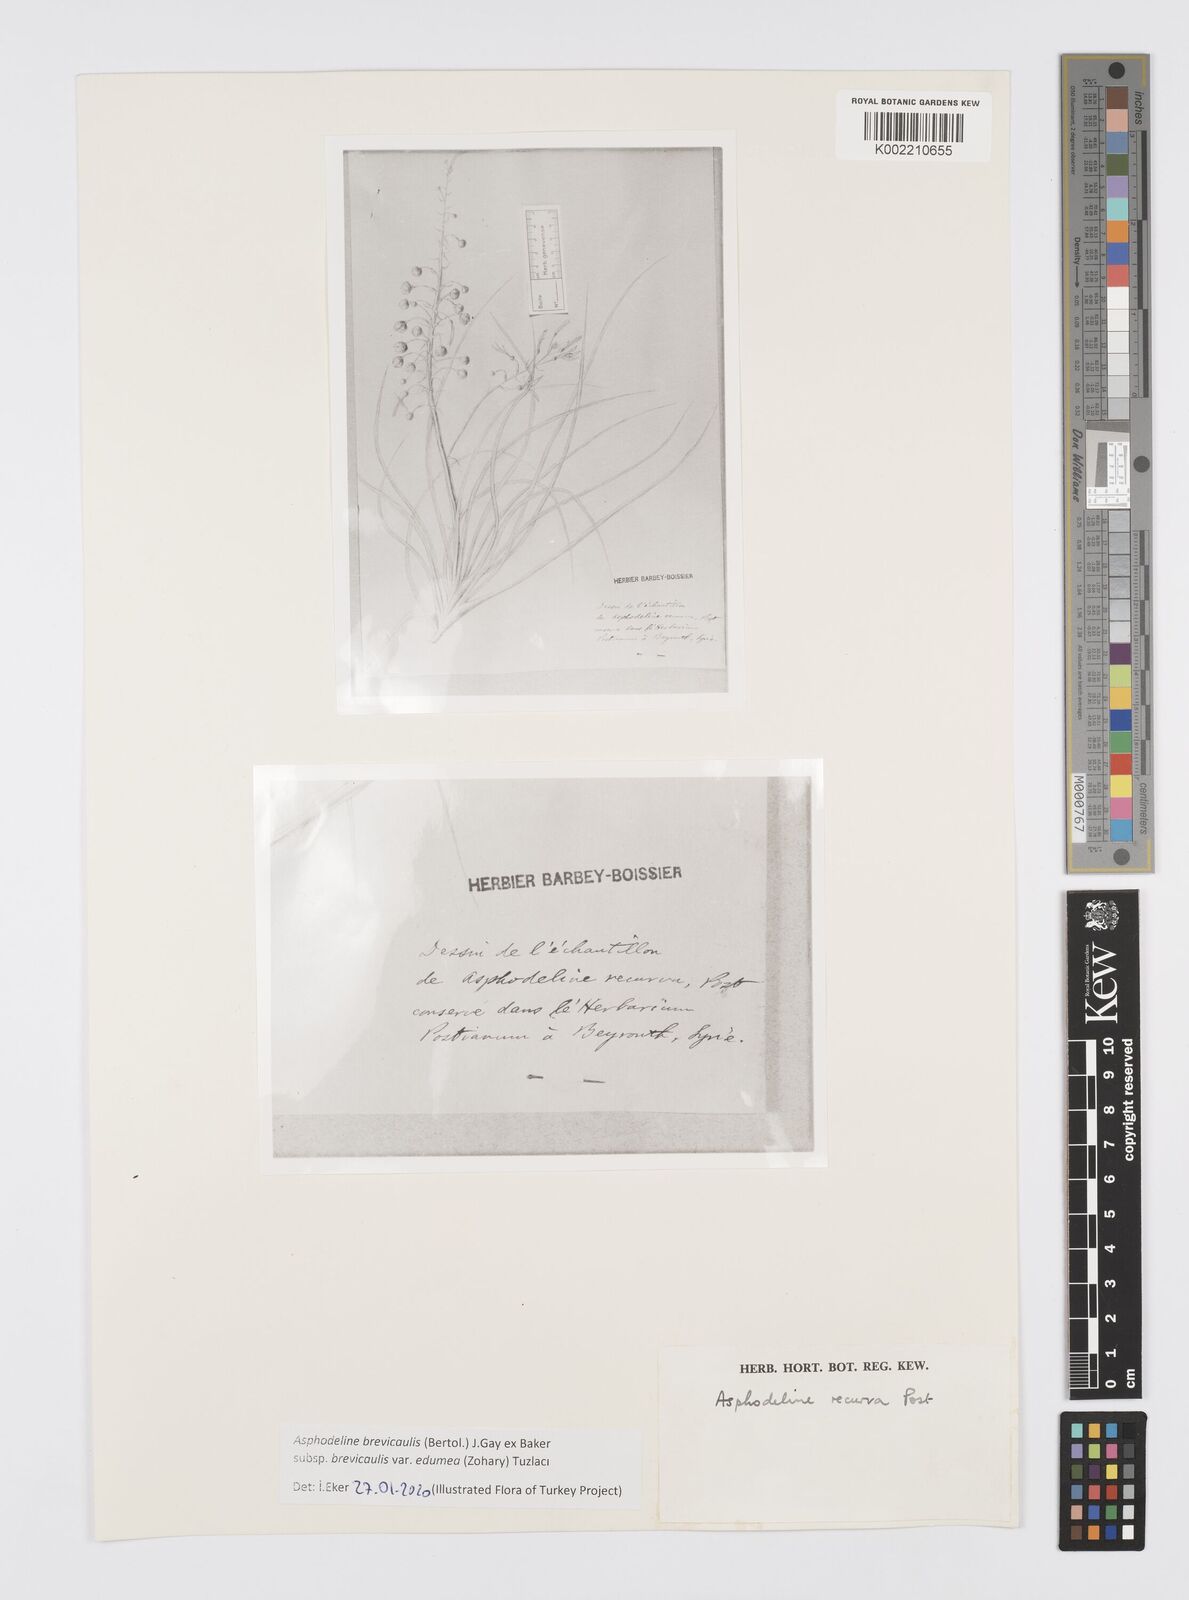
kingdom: Plantae
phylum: Tracheophyta
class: Liliopsida
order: Asparagales
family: Asphodelaceae
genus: Asphodeline
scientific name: Asphodeline brevicaulis
